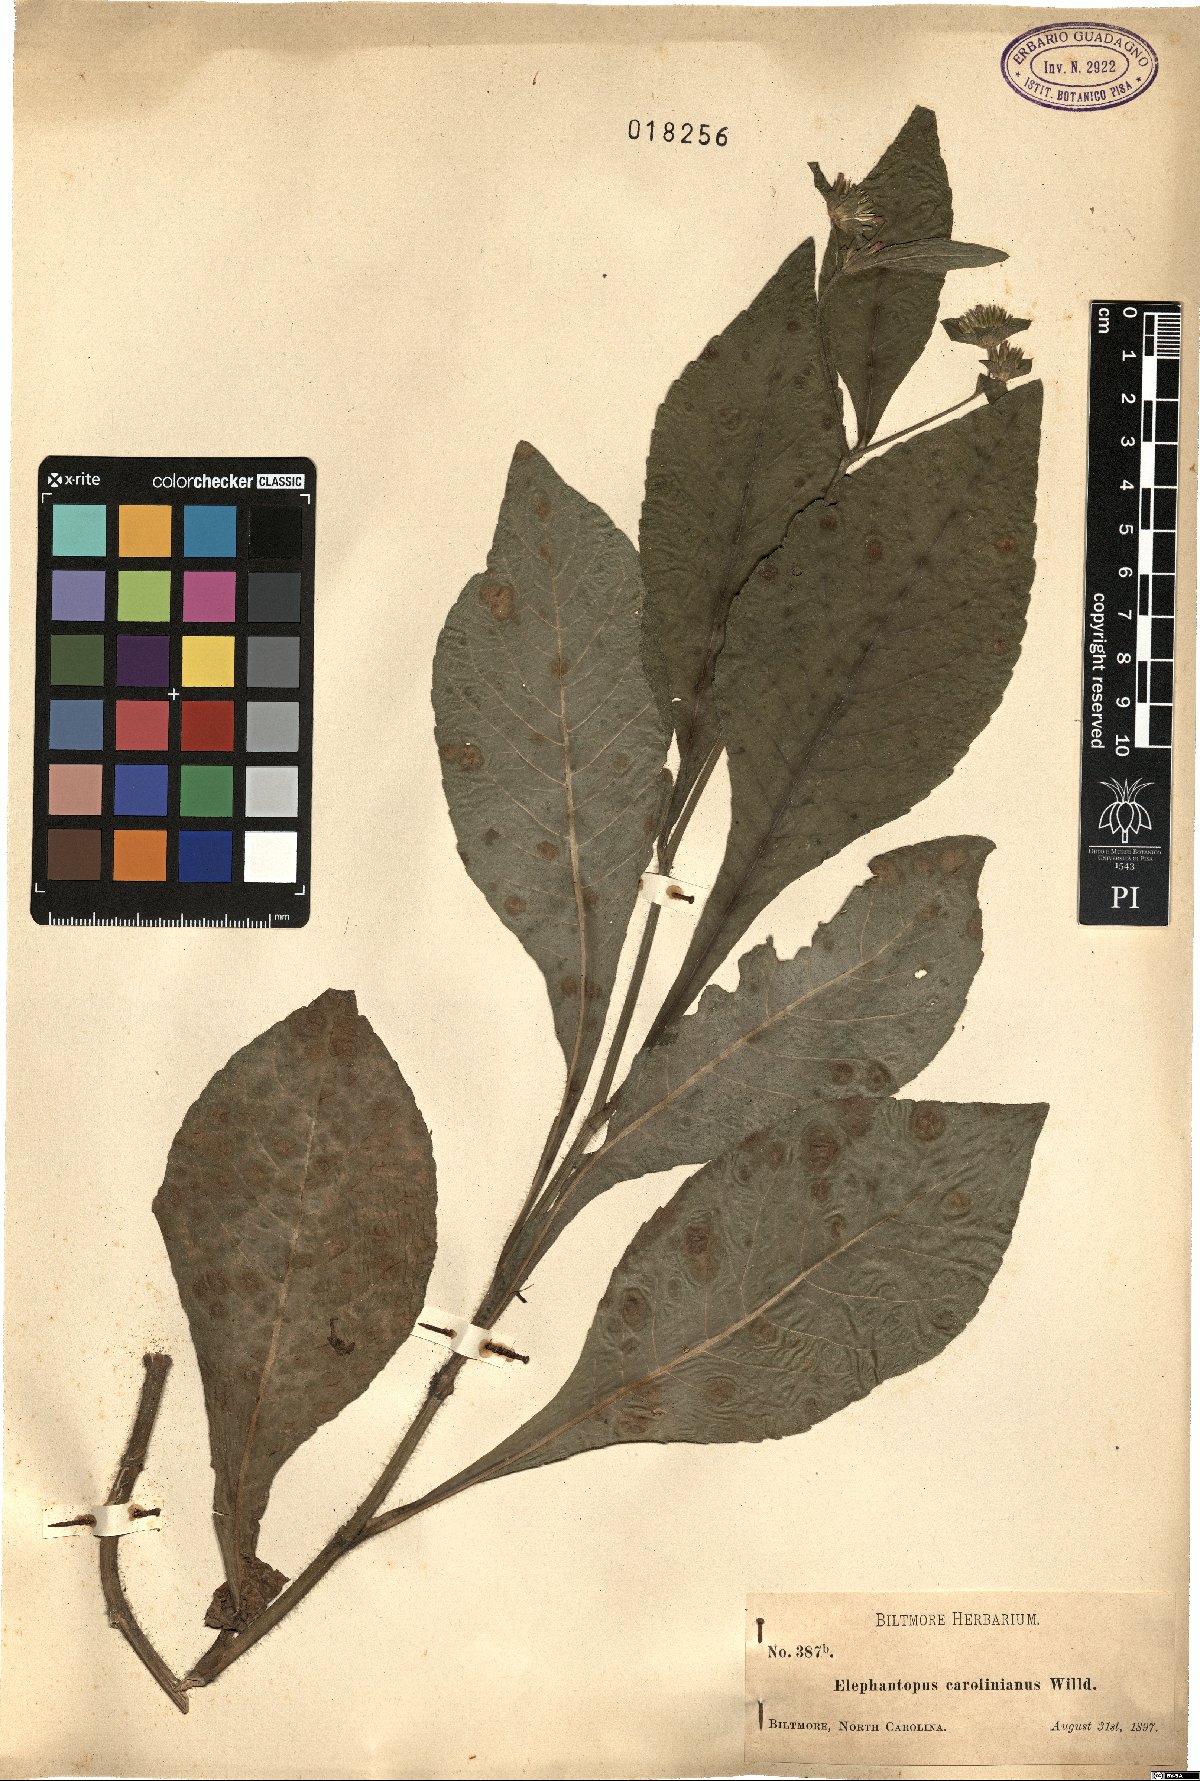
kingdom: Plantae
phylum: Tracheophyta
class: Magnoliopsida
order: Asterales
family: Asteraceae
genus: Elephantopus
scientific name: Elephantopus mollis
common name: Soft elephantsfoot
